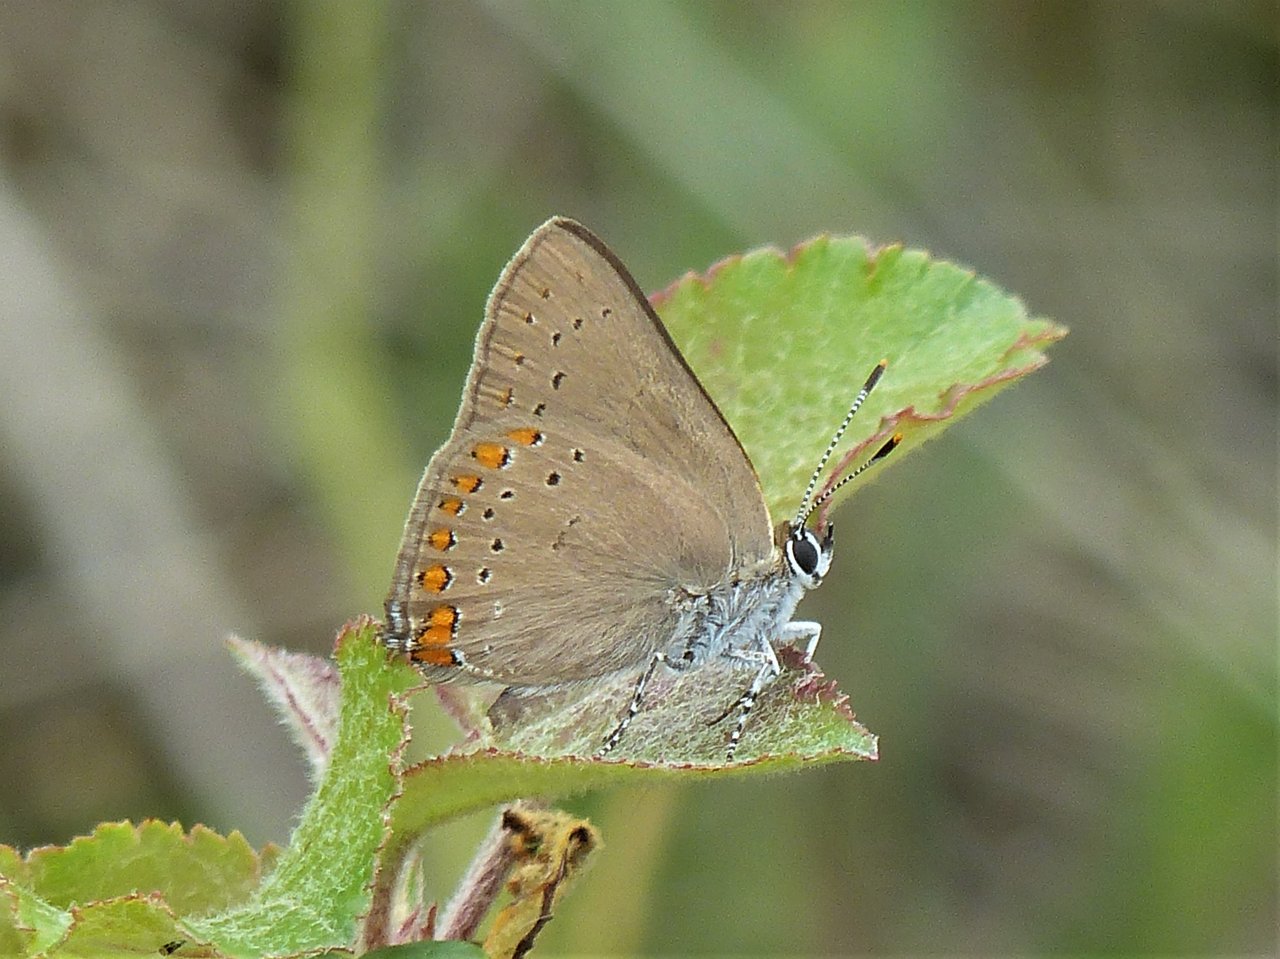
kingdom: Animalia
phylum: Arthropoda
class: Insecta
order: Lepidoptera
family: Lycaenidae
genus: Harkenclenus
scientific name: Harkenclenus titus
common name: Coral Hairstreak
